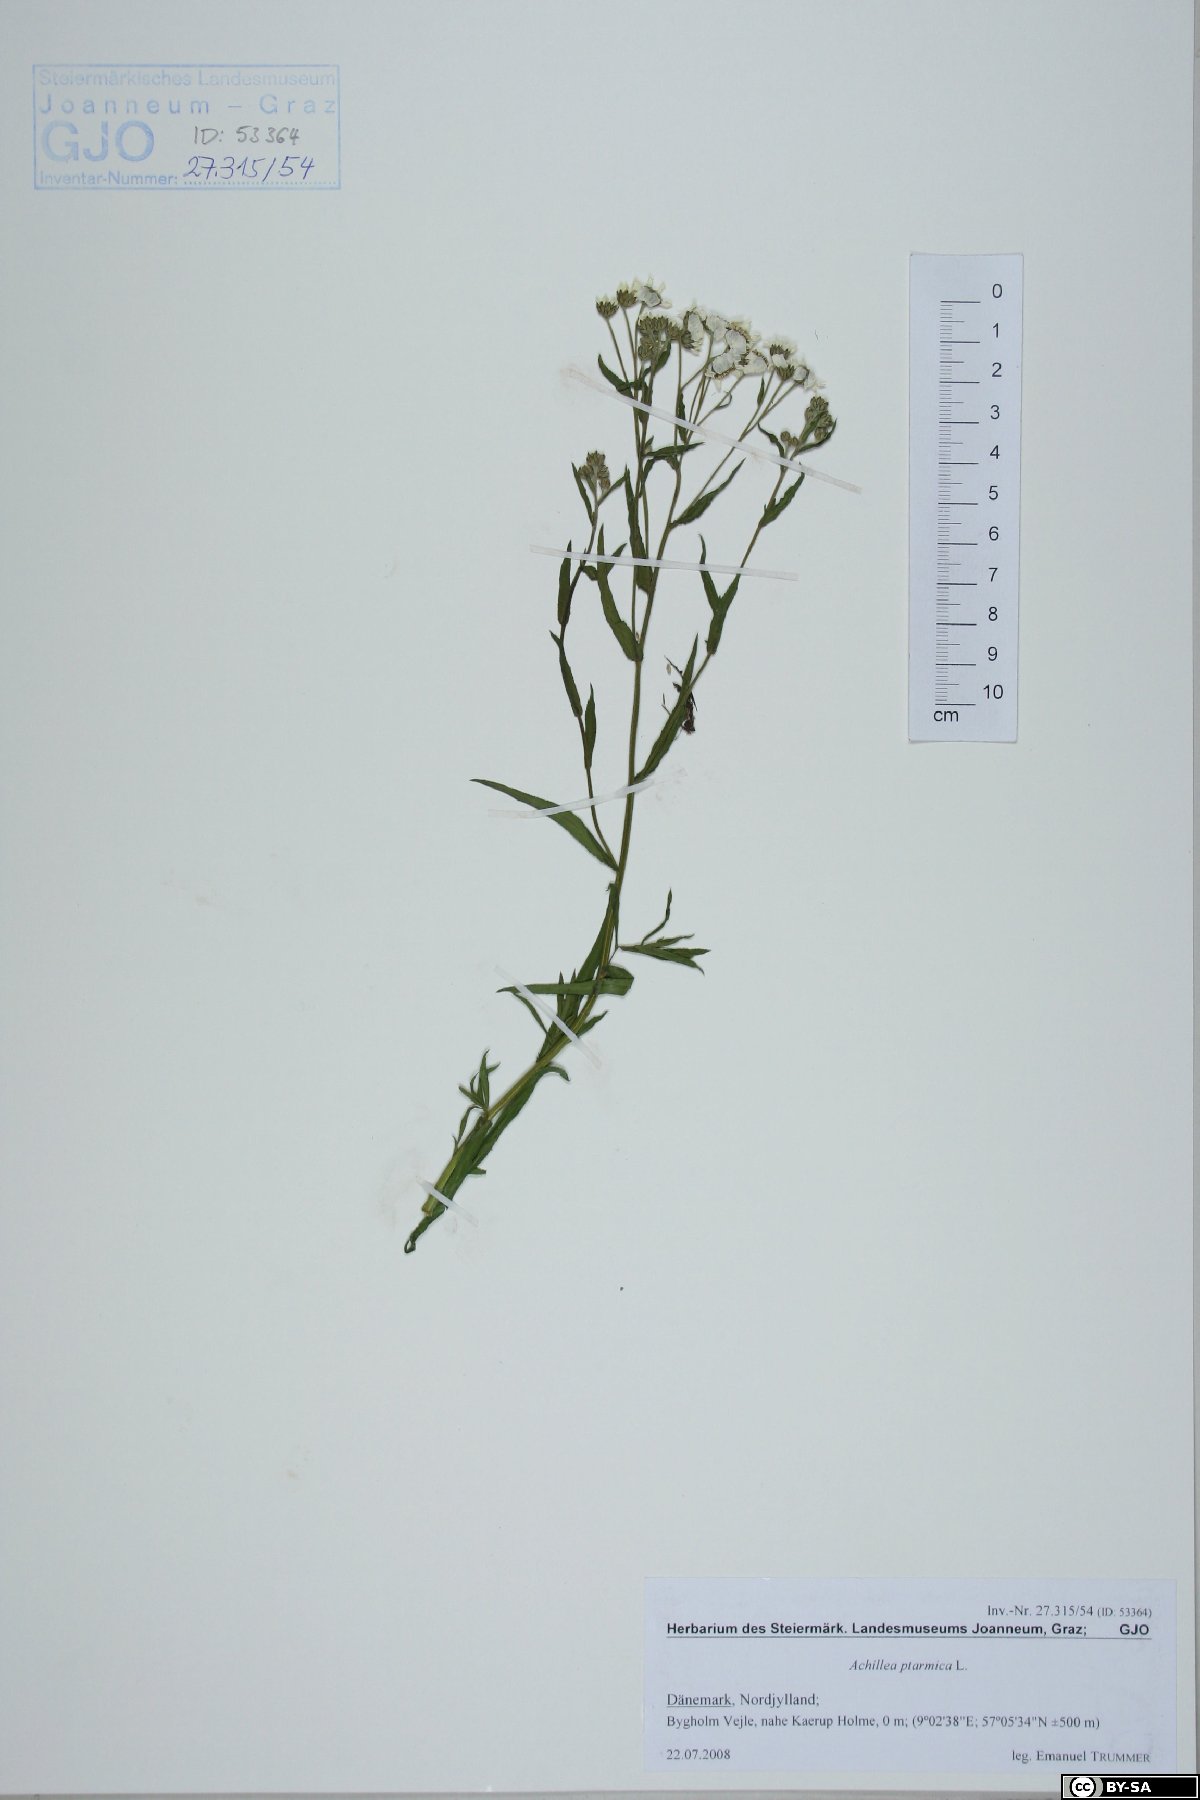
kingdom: Plantae
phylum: Tracheophyta
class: Magnoliopsida
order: Asterales
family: Asteraceae
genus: Achillea
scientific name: Achillea ptarmica
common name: Sneezeweed
